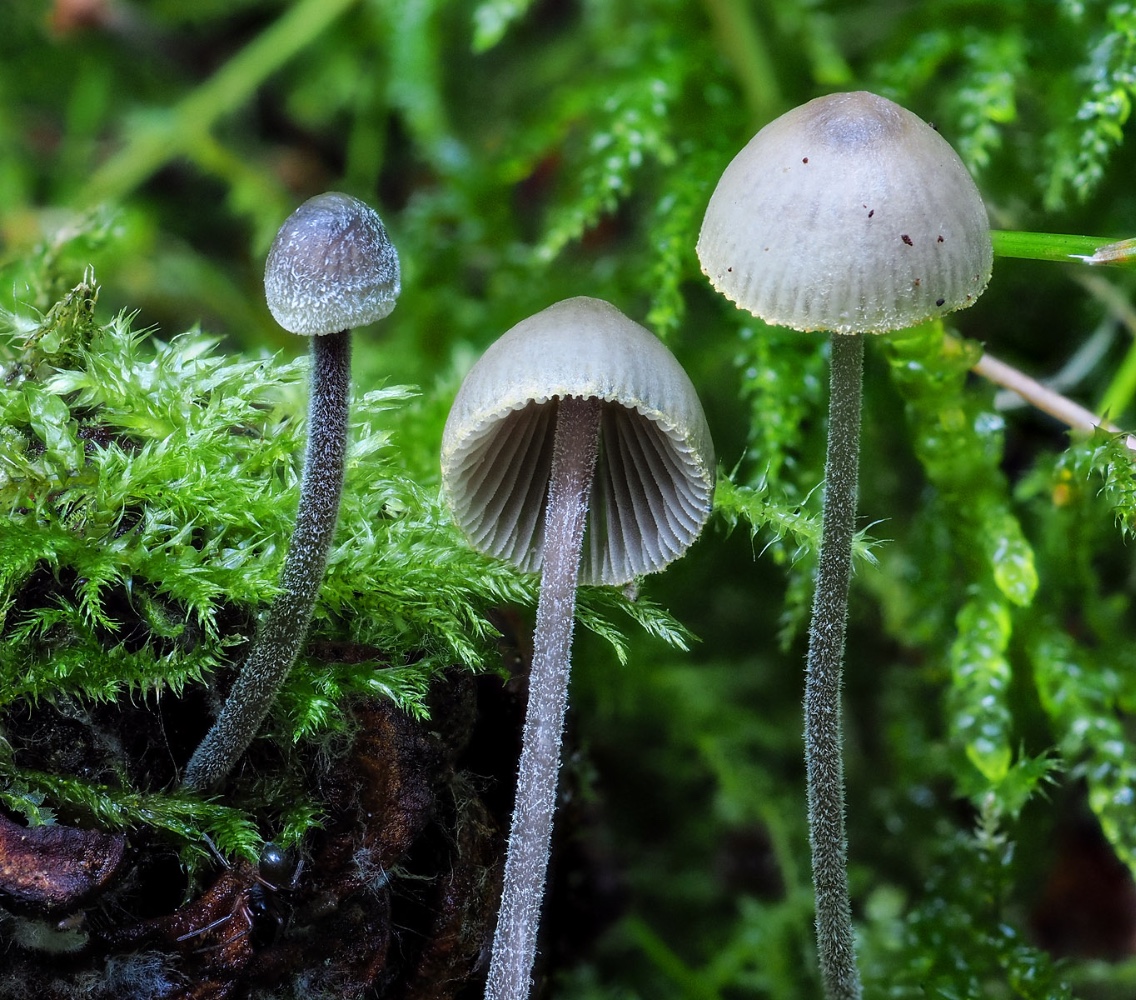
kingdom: Fungi
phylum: Basidiomycota
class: Agaricomycetes
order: Agaricales
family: Mycenaceae
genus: Mycena
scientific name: Mycena amicta
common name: iris-huesvamp
